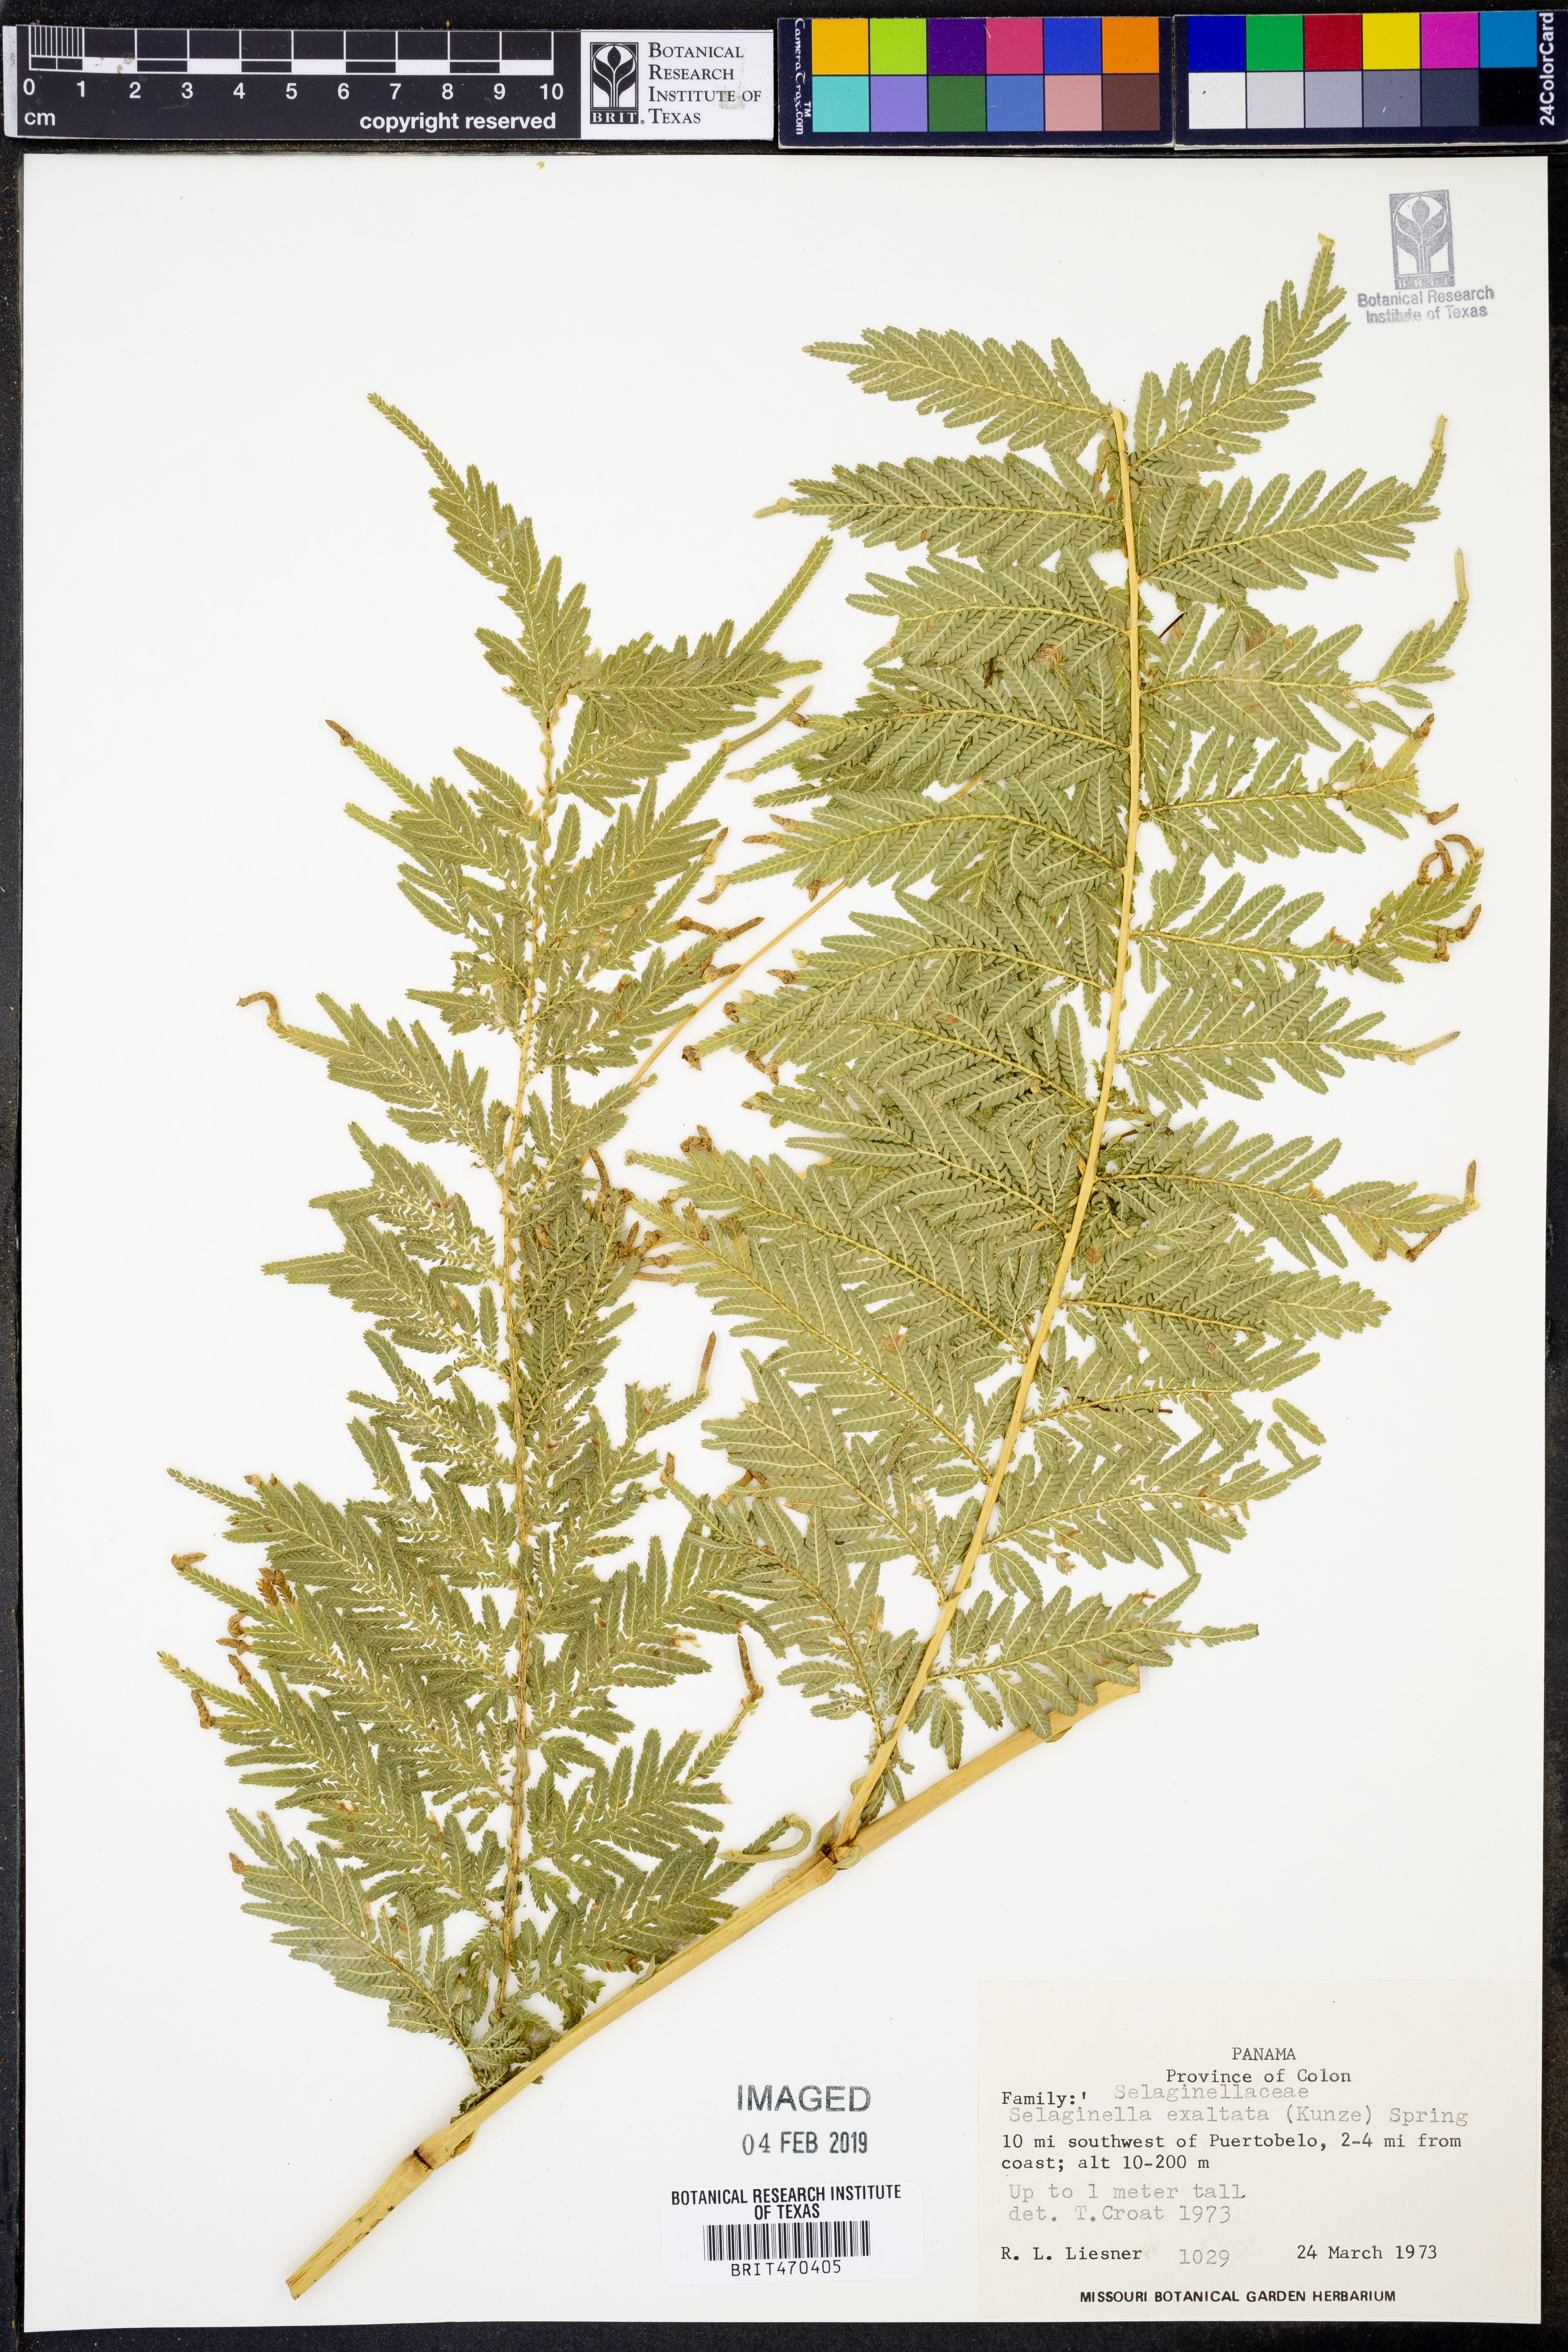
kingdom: Plantae
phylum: Tracheophyta
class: Lycopodiopsida
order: Selaginellales
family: Selaginellaceae
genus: Selaginella
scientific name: Selaginella exaltata
